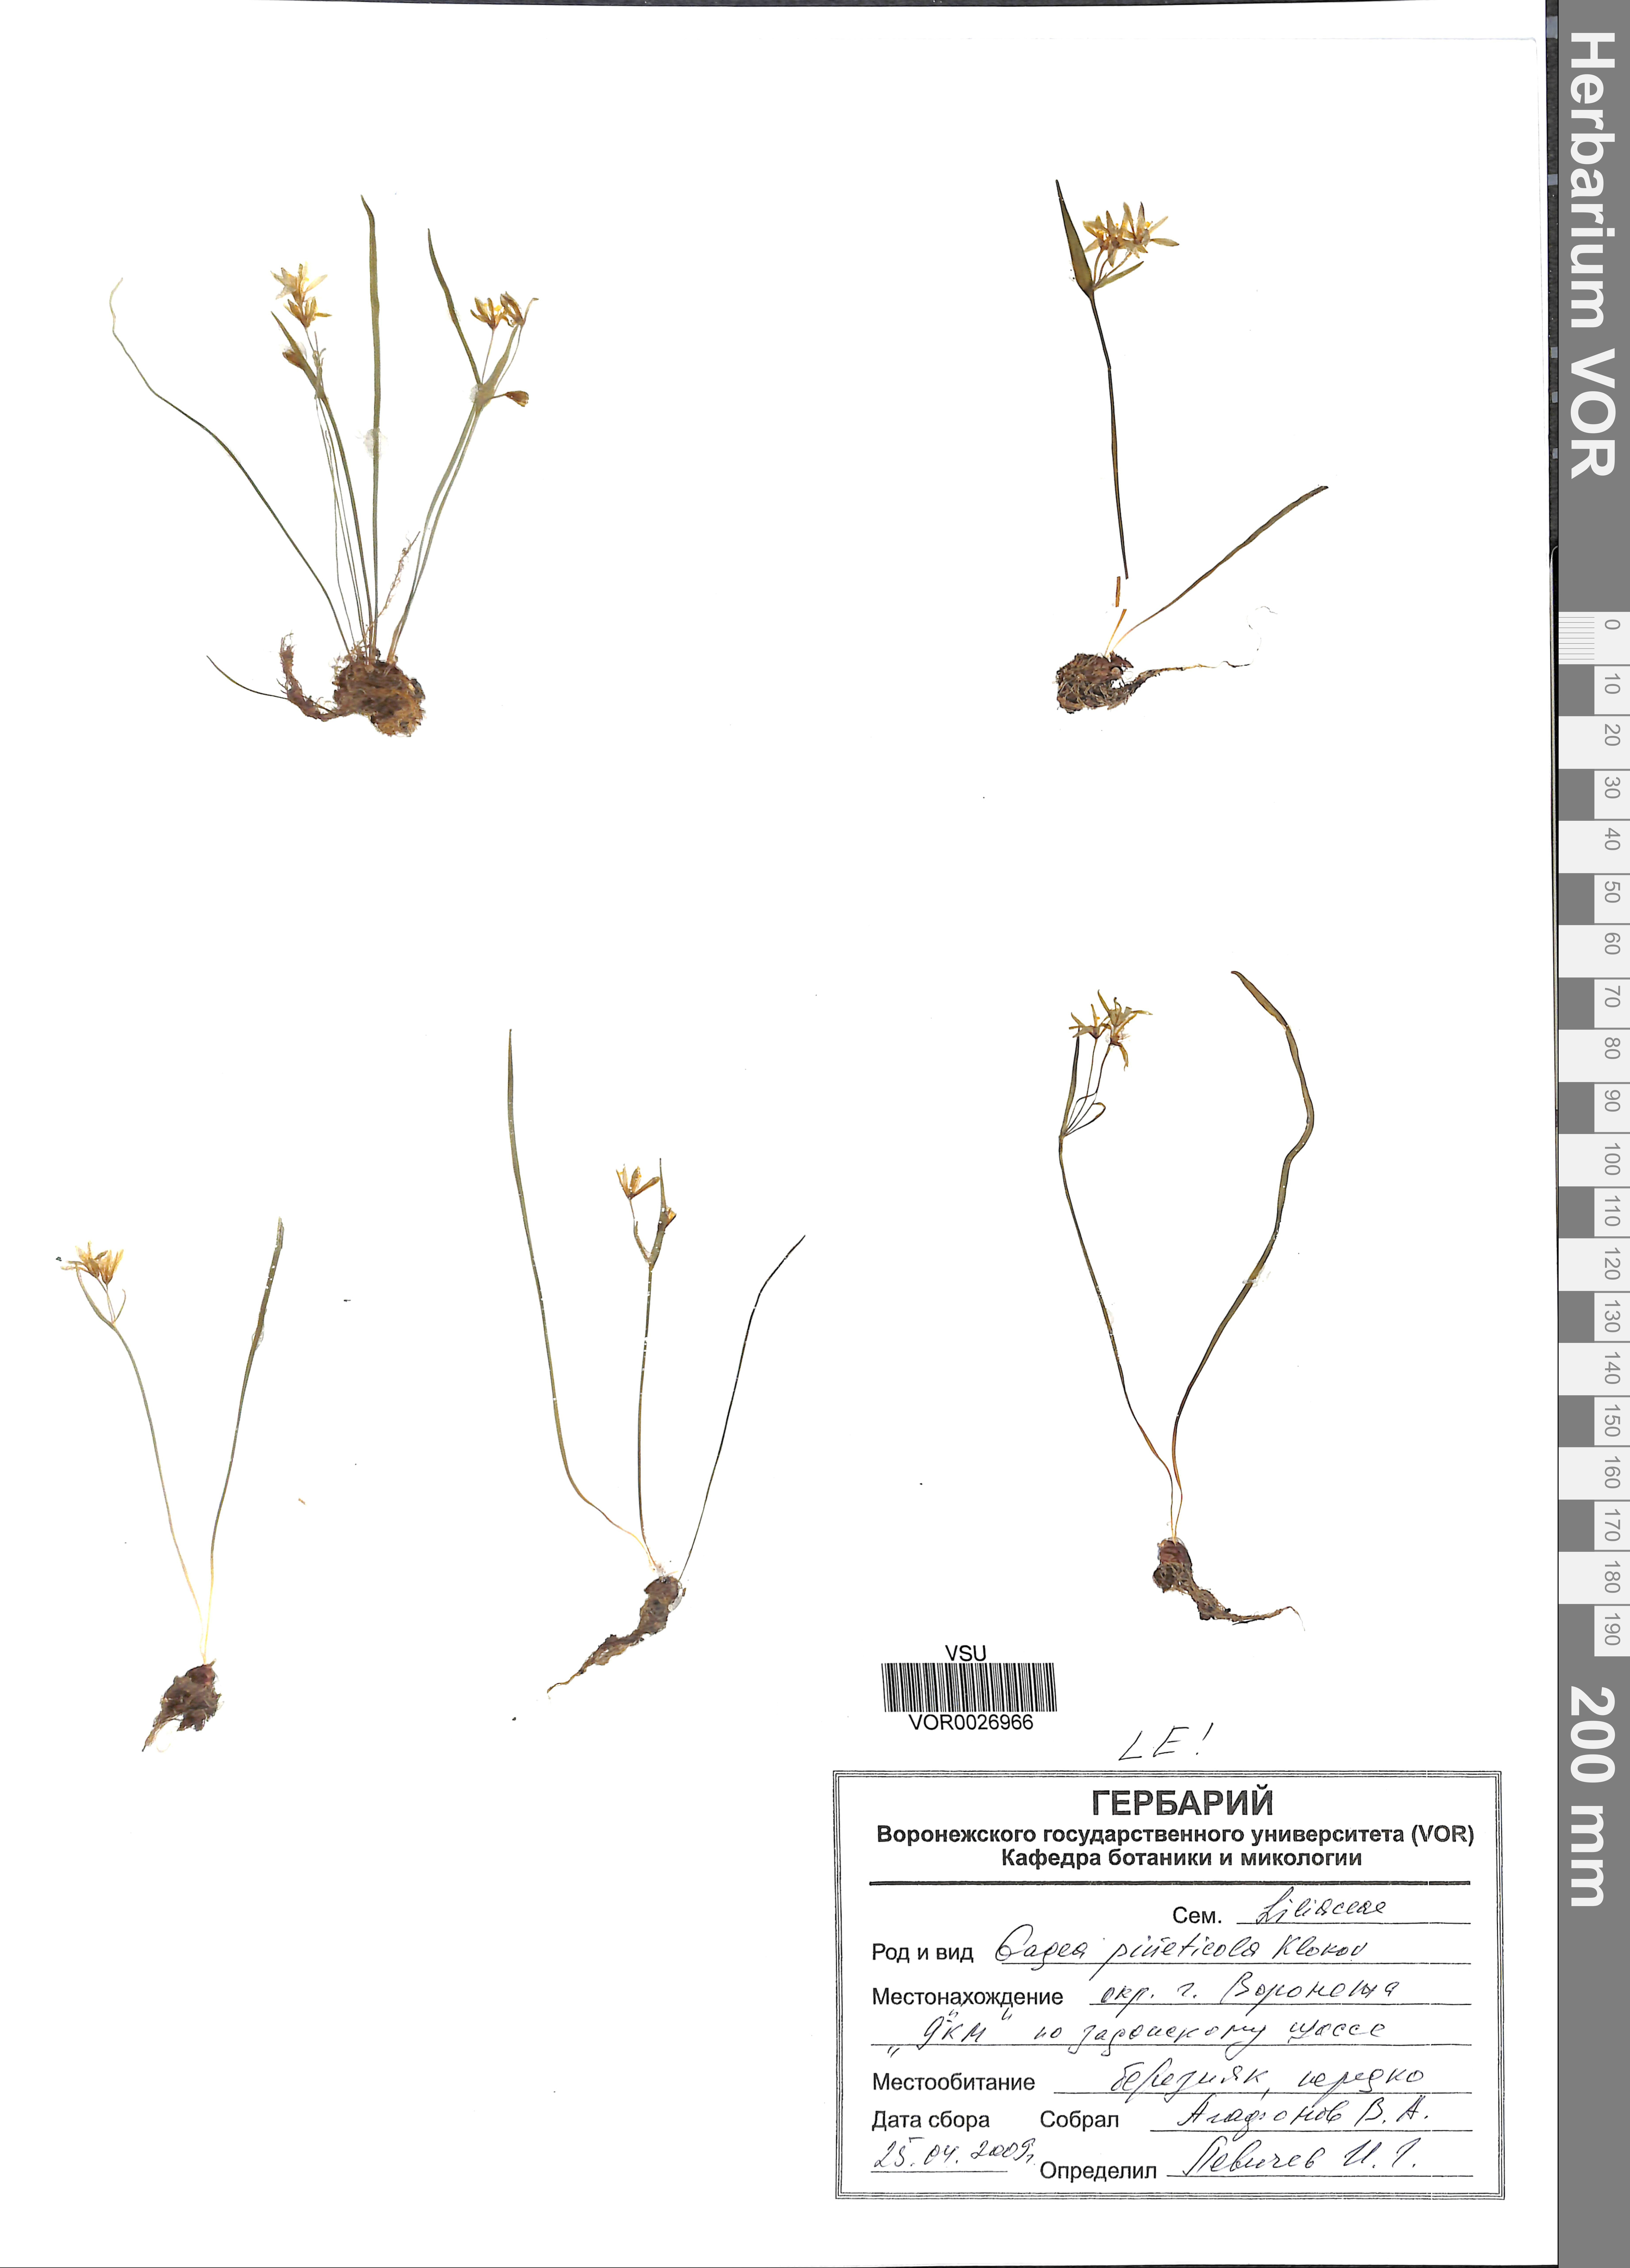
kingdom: Plantae
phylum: Tracheophyta
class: Liliopsida
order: Liliales
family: Liliaceae
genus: Gagea
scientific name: Gagea pusilla
